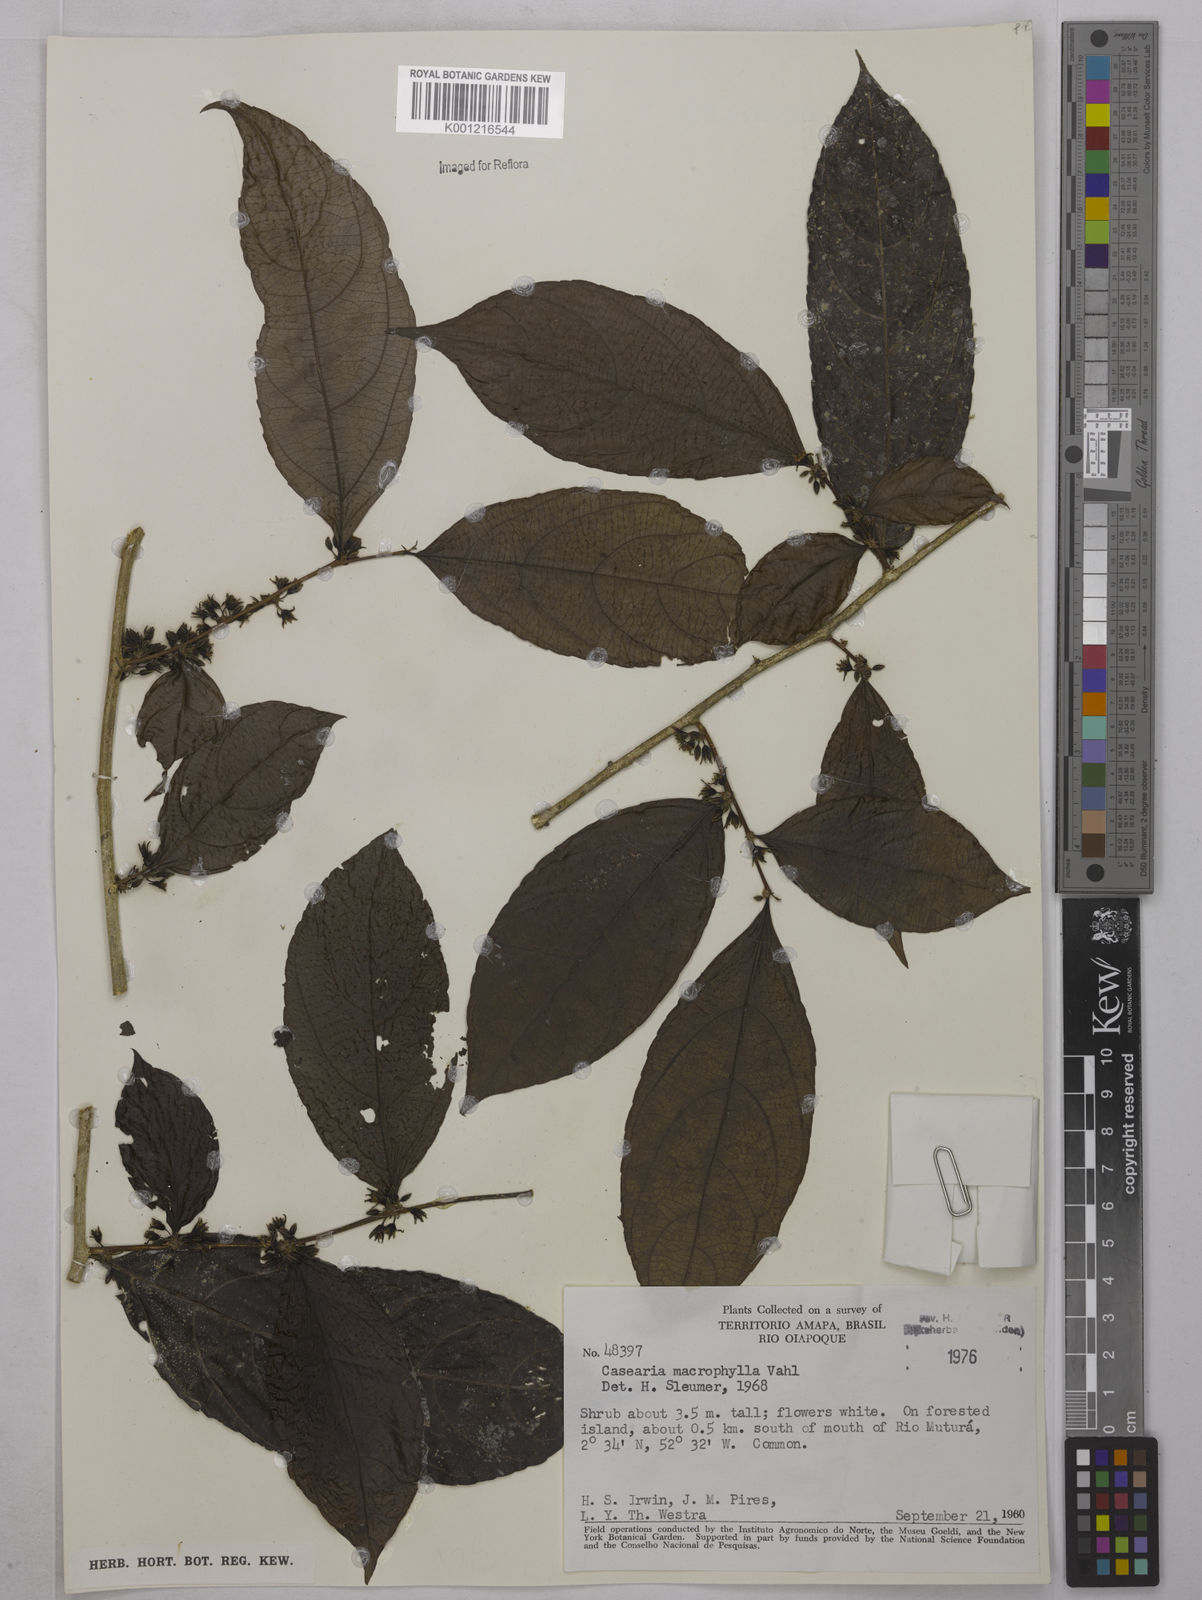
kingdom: Plantae
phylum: Tracheophyta
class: Magnoliopsida
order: Malpighiales
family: Salicaceae
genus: Casearia
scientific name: Casearia pitumba
